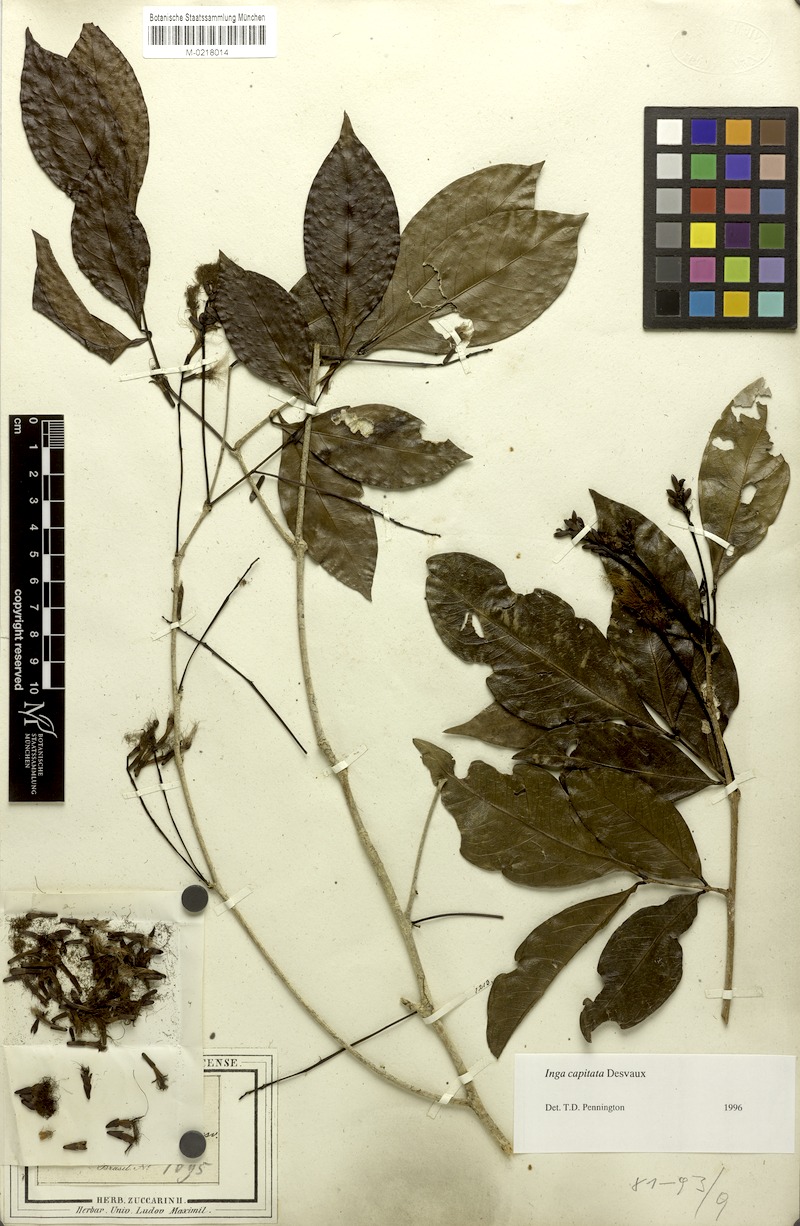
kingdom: Plantae
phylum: Tracheophyta
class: Magnoliopsida
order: Fabales
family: Fabaceae
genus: Inga
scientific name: Inga capitata
